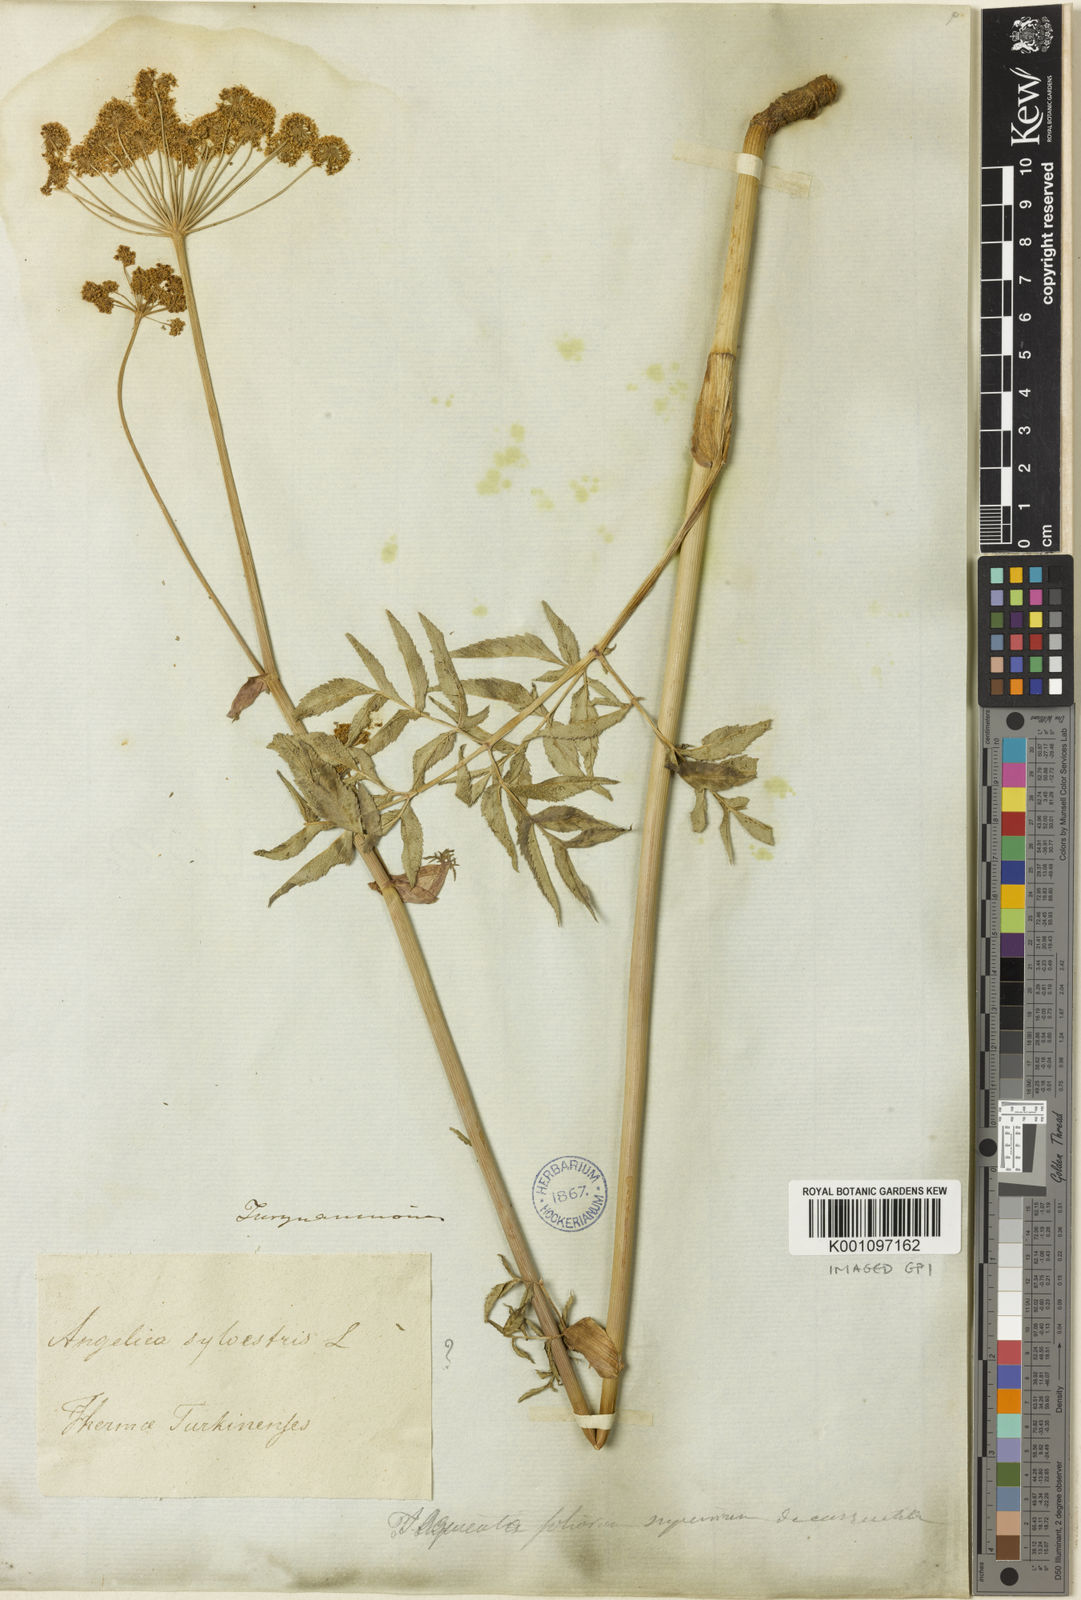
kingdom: Plantae
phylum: Tracheophyta
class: Magnoliopsida
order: Apiales
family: Apiaceae
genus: Angelica
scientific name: Angelica sylvestris
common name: Wild angelica
